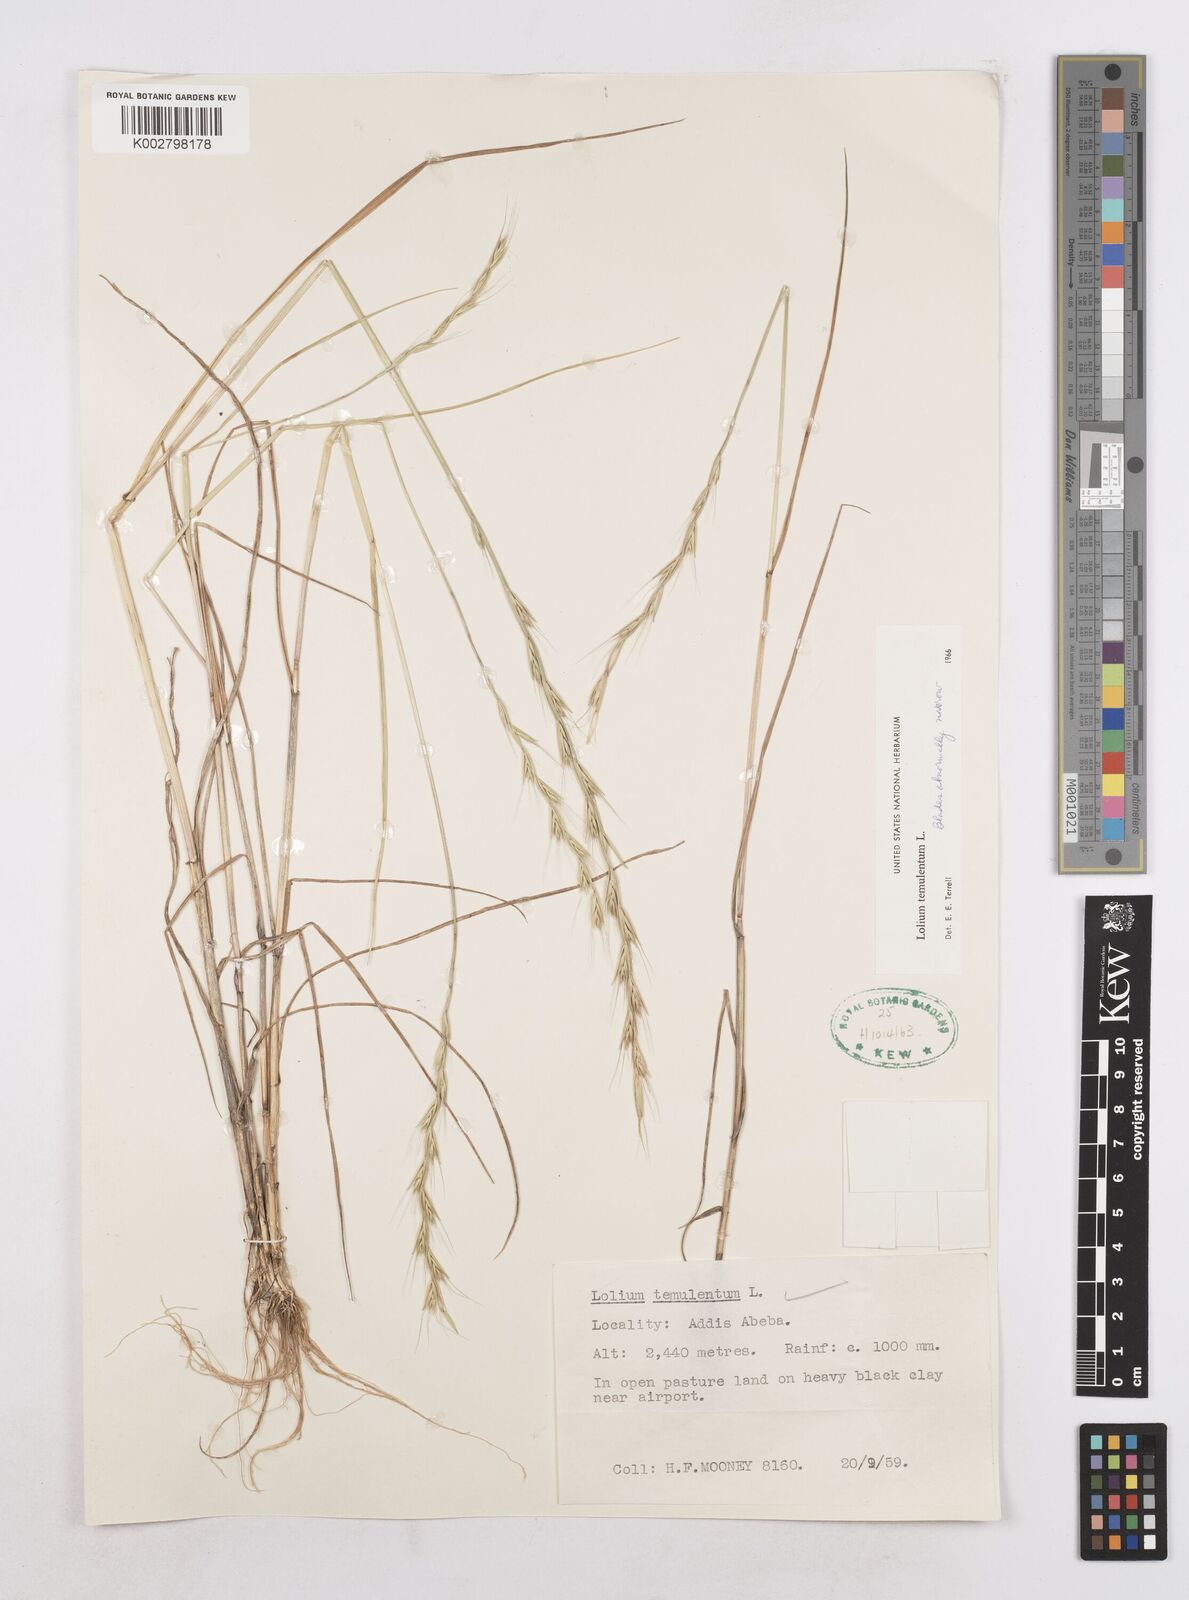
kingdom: Plantae
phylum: Tracheophyta
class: Liliopsida
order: Poales
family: Poaceae
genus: Lolium
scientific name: Lolium temulentum
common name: Darnel
